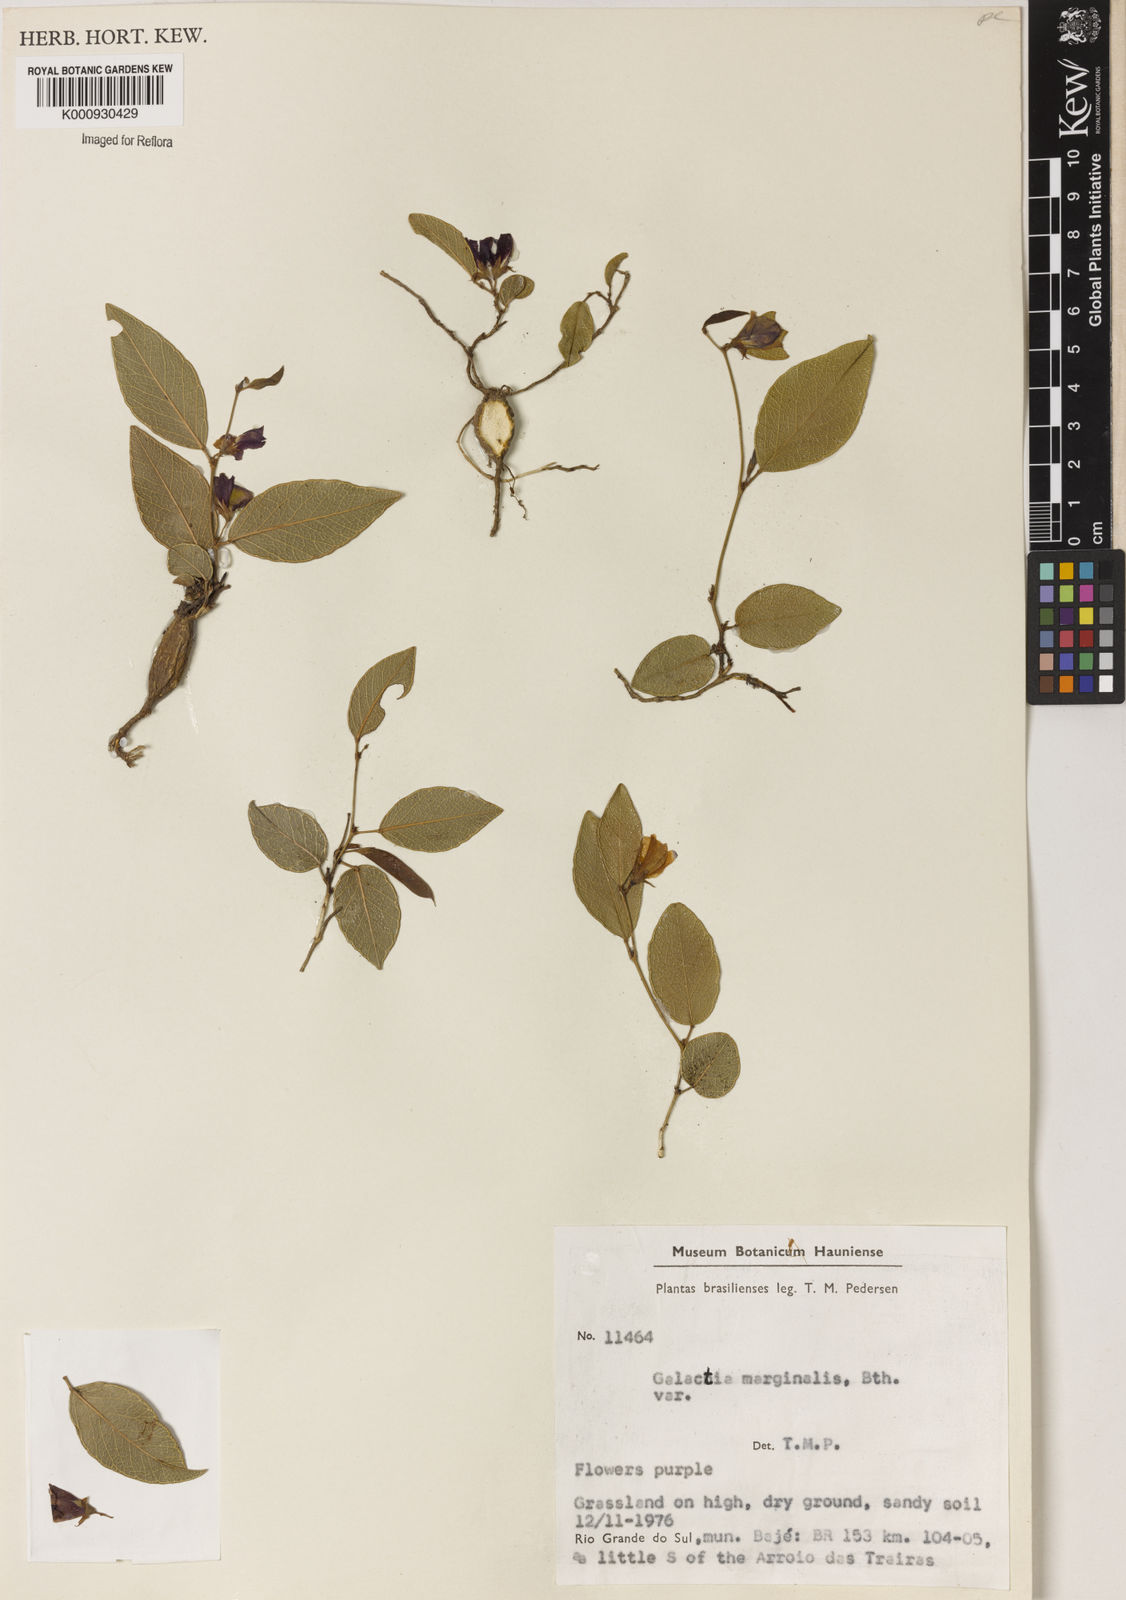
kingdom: Plantae
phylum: Tracheophyta
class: Magnoliopsida
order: Fabales
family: Fabaceae
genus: Nanogalactia
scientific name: Nanogalactia heterophylla
